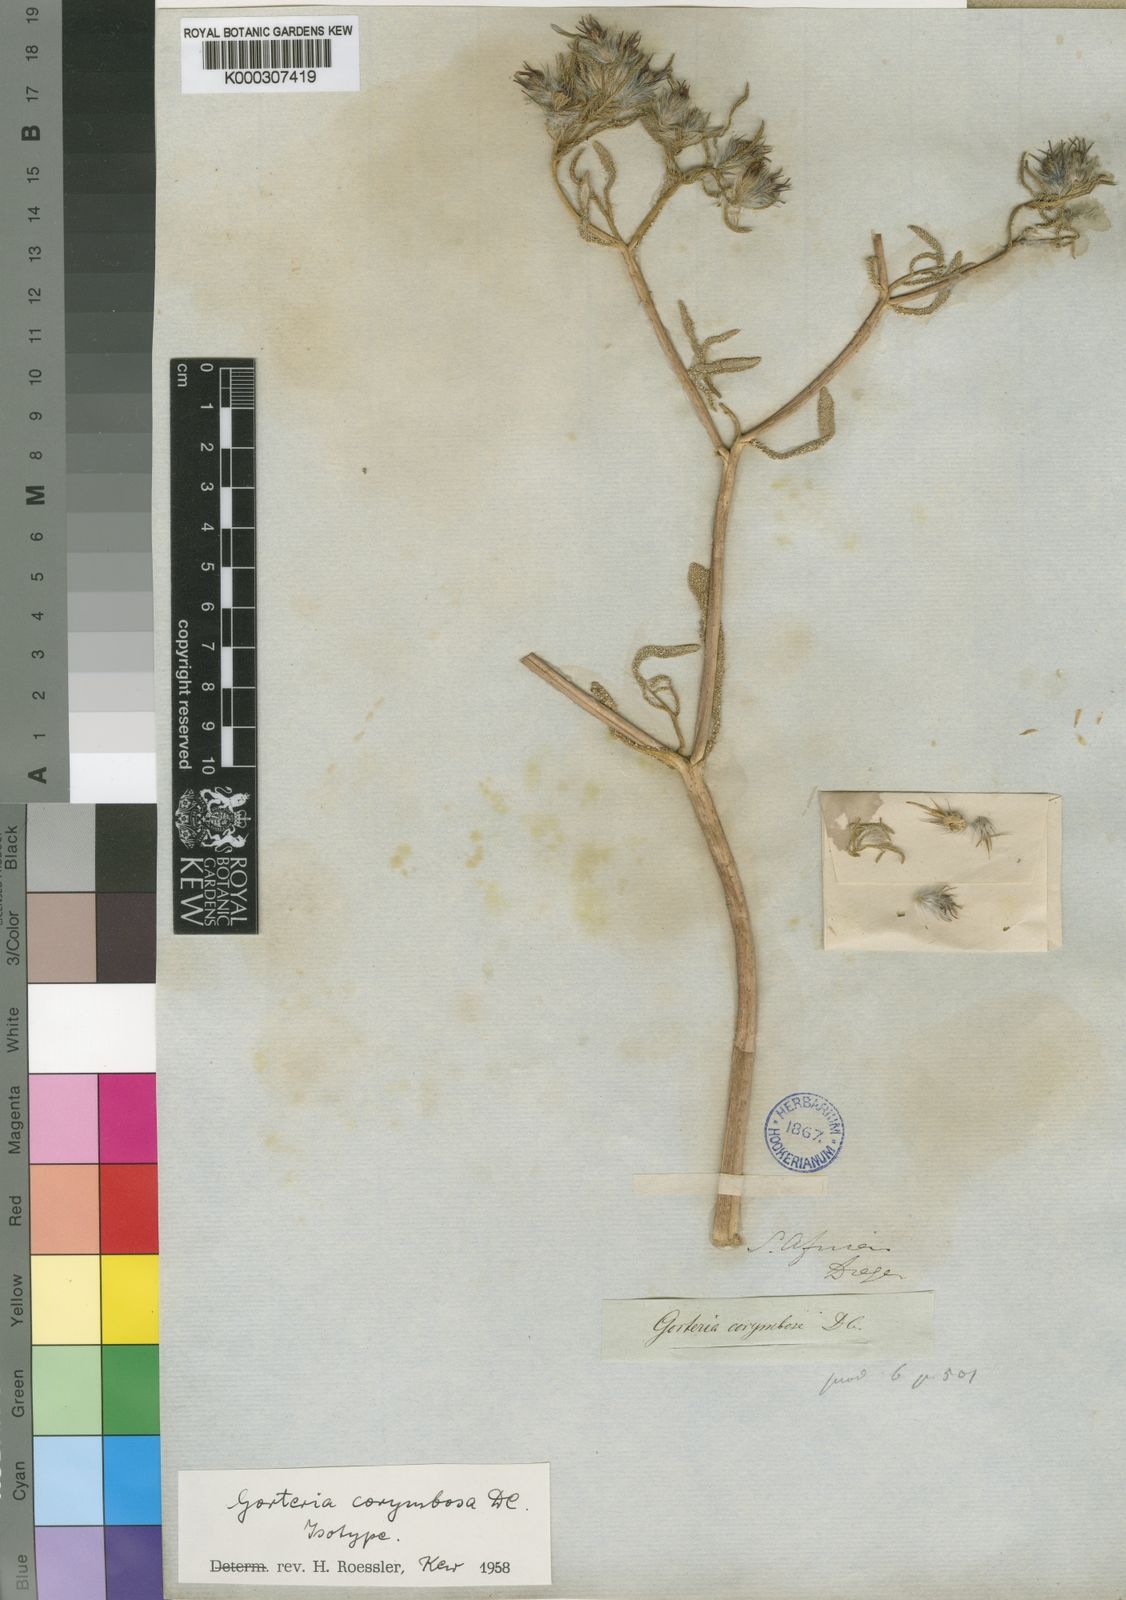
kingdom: Plantae
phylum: Tracheophyta
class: Magnoliopsida
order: Asterales
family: Asteraceae
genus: Gorteria
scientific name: Gorteria corymbosa
